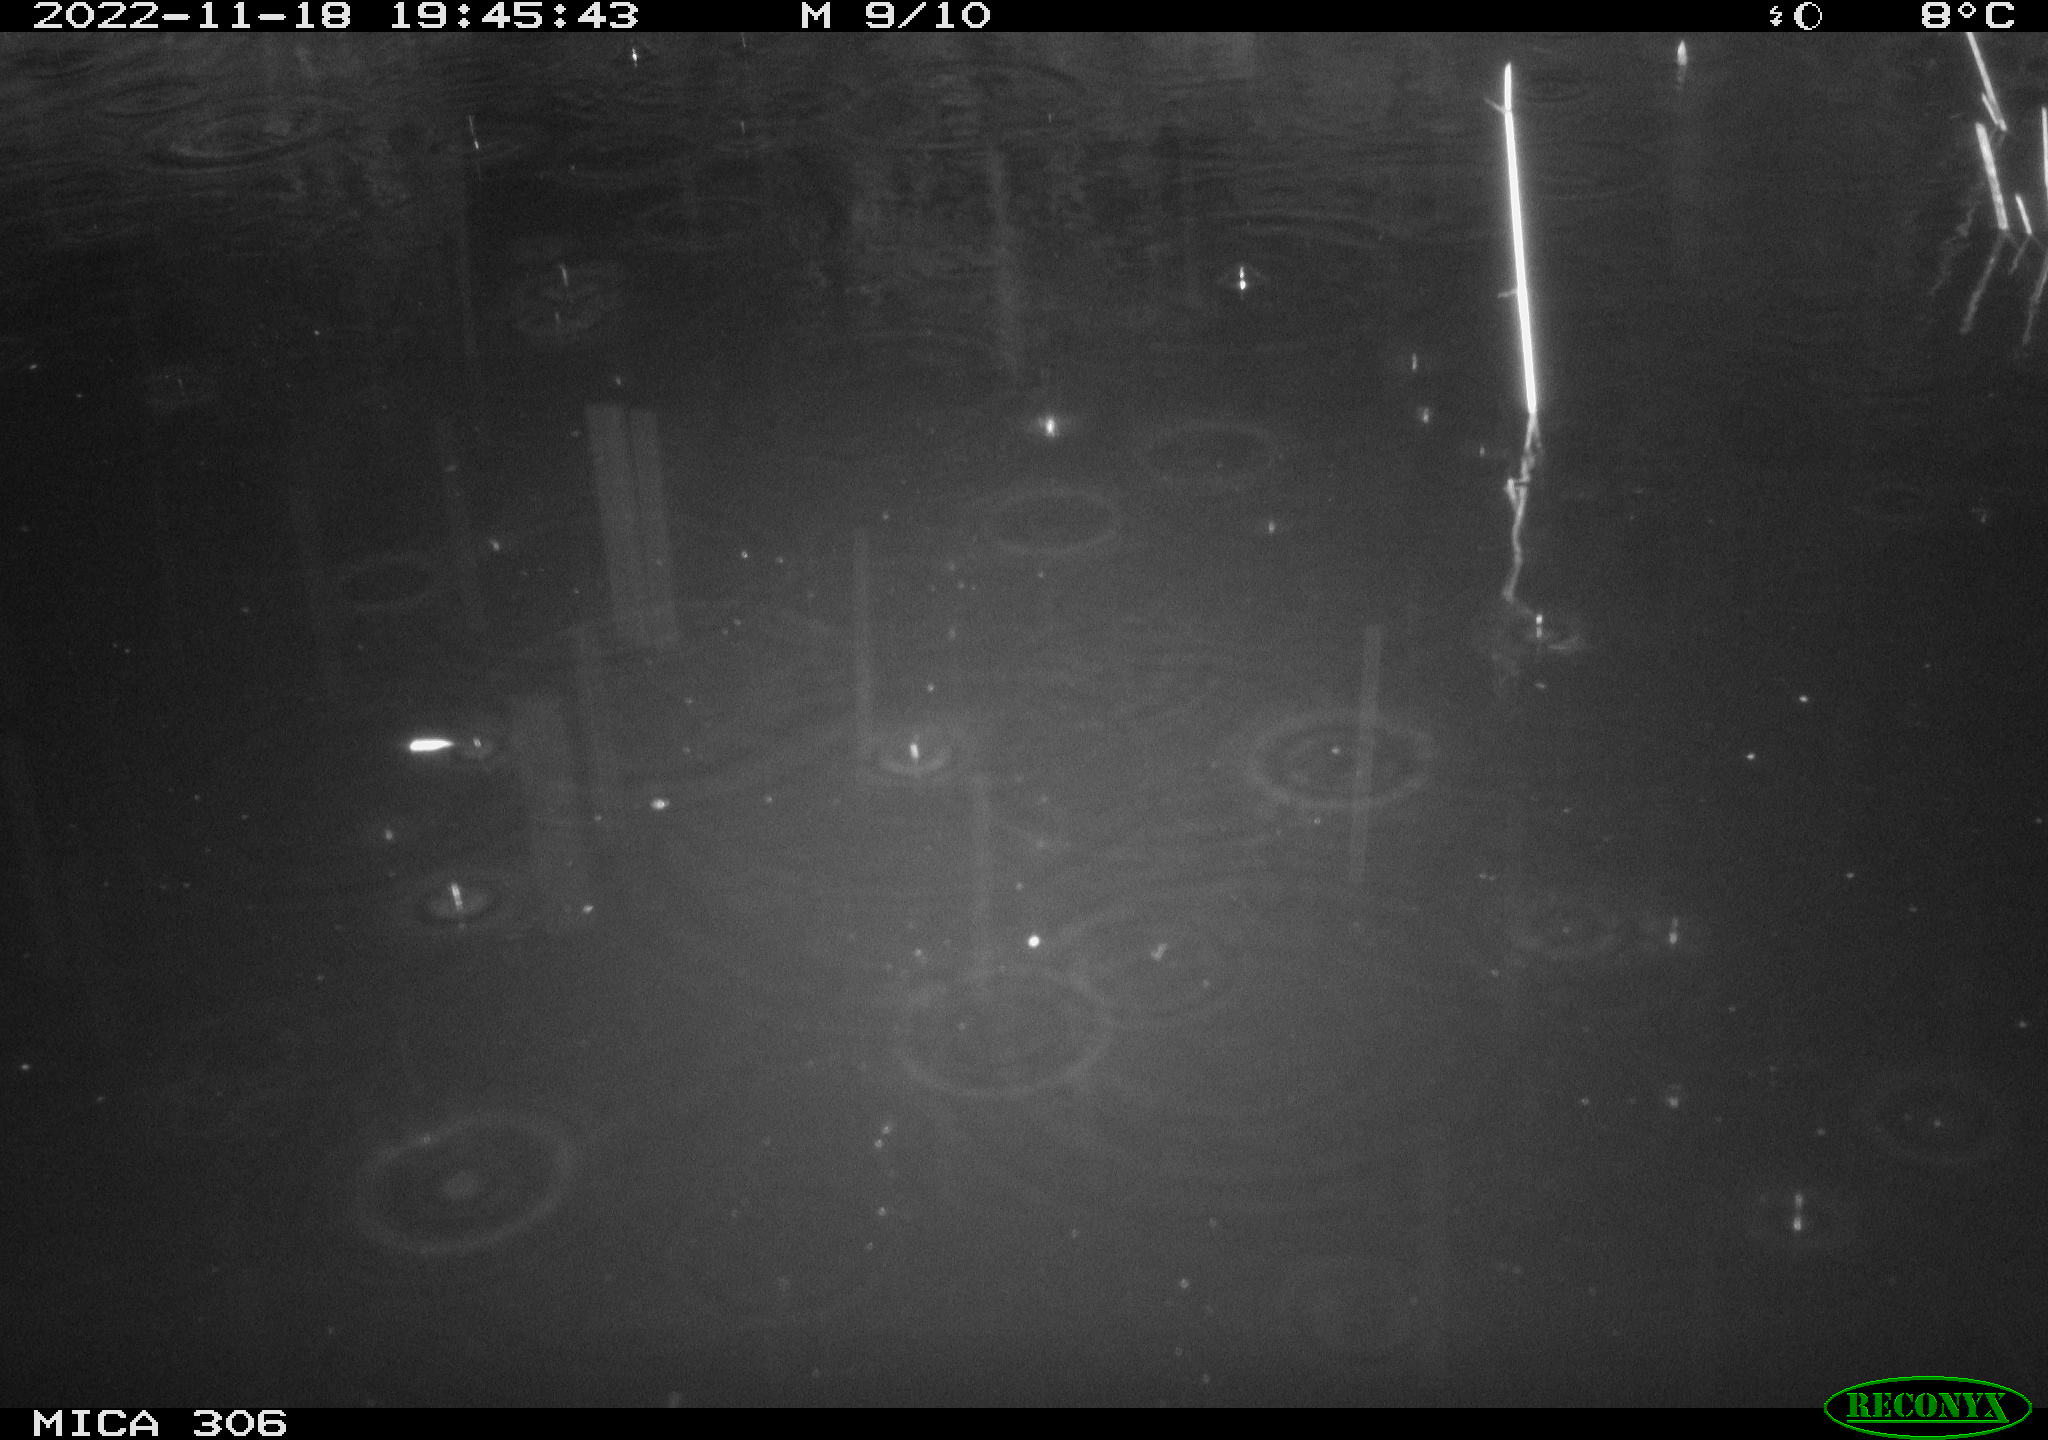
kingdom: Animalia
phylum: Chordata
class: Mammalia
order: Rodentia
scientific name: Rodentia
